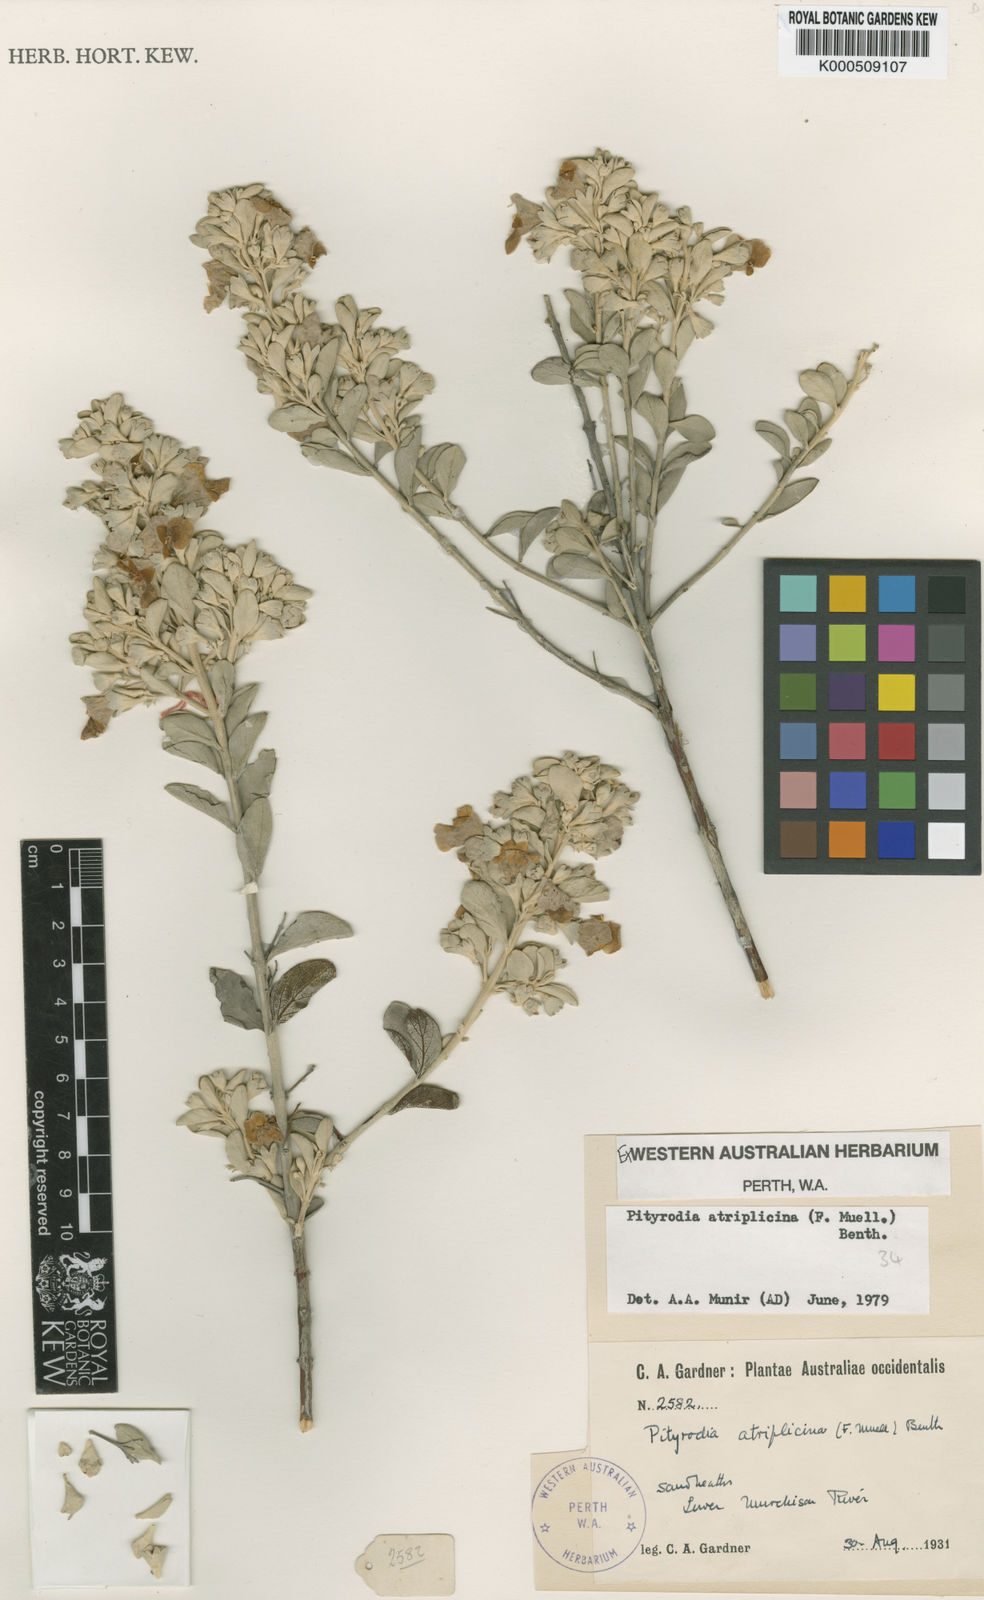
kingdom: Plantae
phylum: Tracheophyta
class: Magnoliopsida
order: Lamiales
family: Lamiaceae
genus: Quoya
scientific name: Quoya atriplicina
